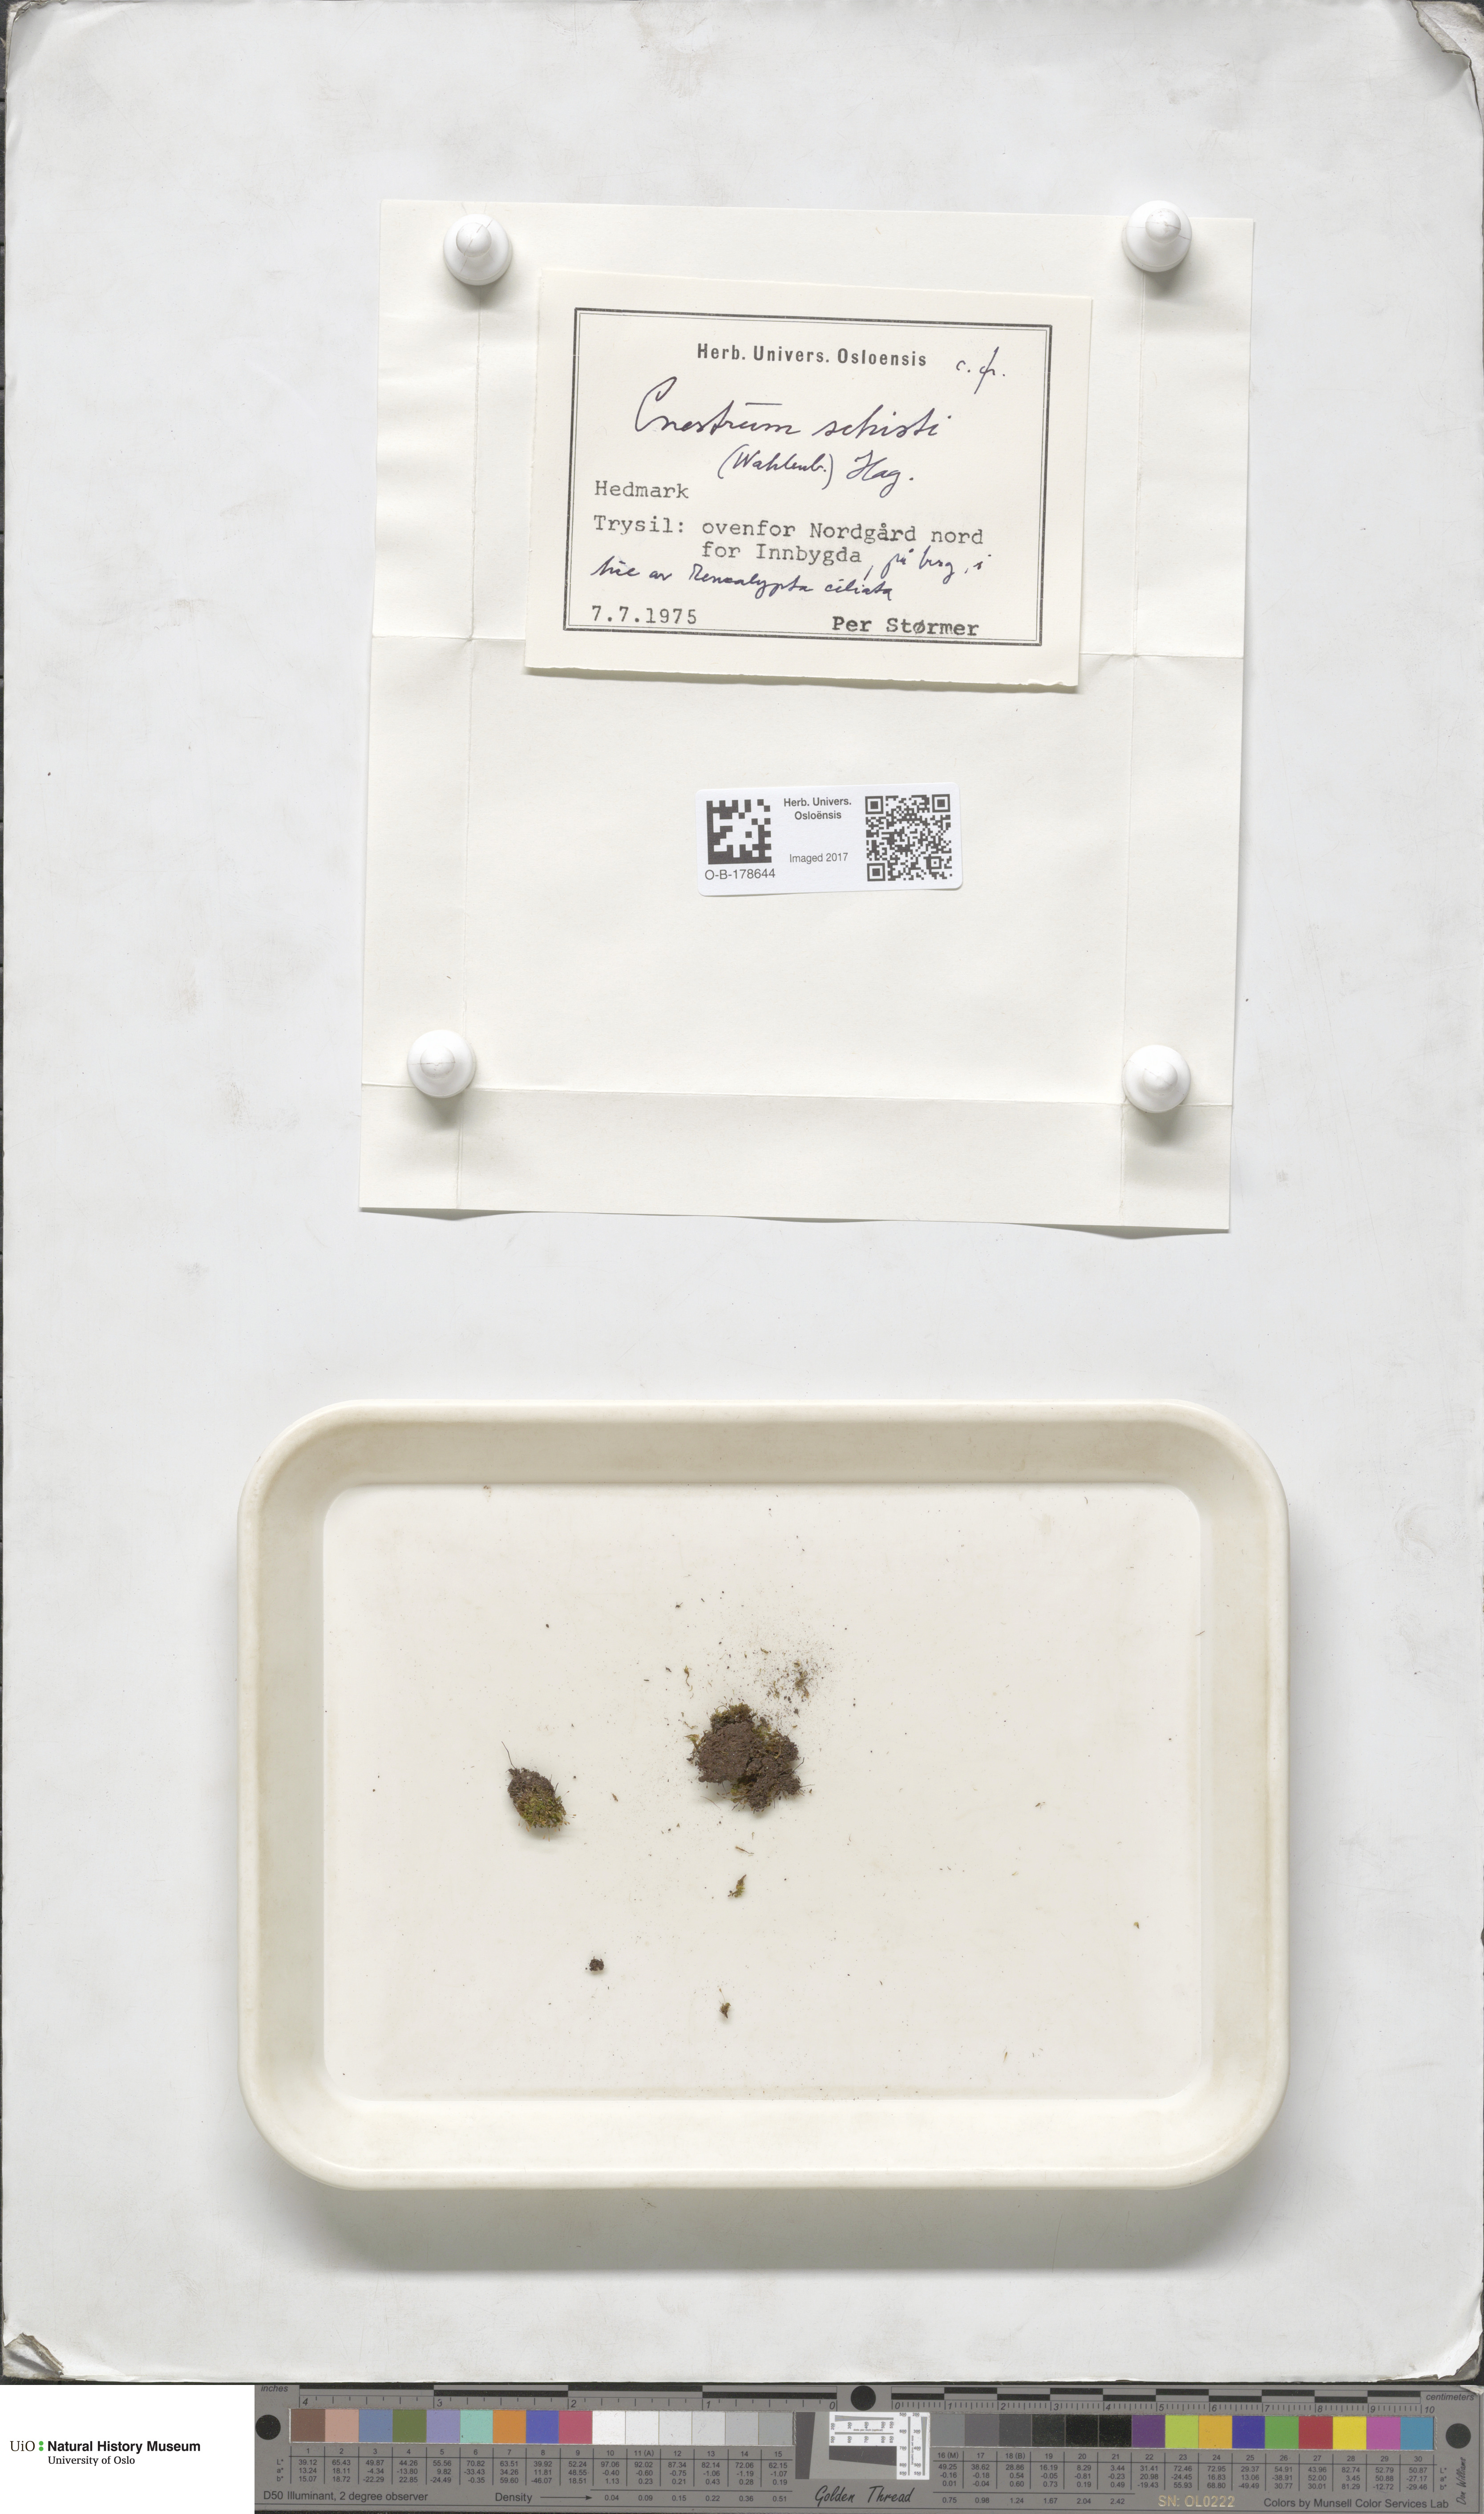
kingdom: Plantae
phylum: Bryophyta
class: Bryopsida
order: Dicranales
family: Rhabdoweisiaceae
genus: Cnestrum
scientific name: Cnestrum schisti
